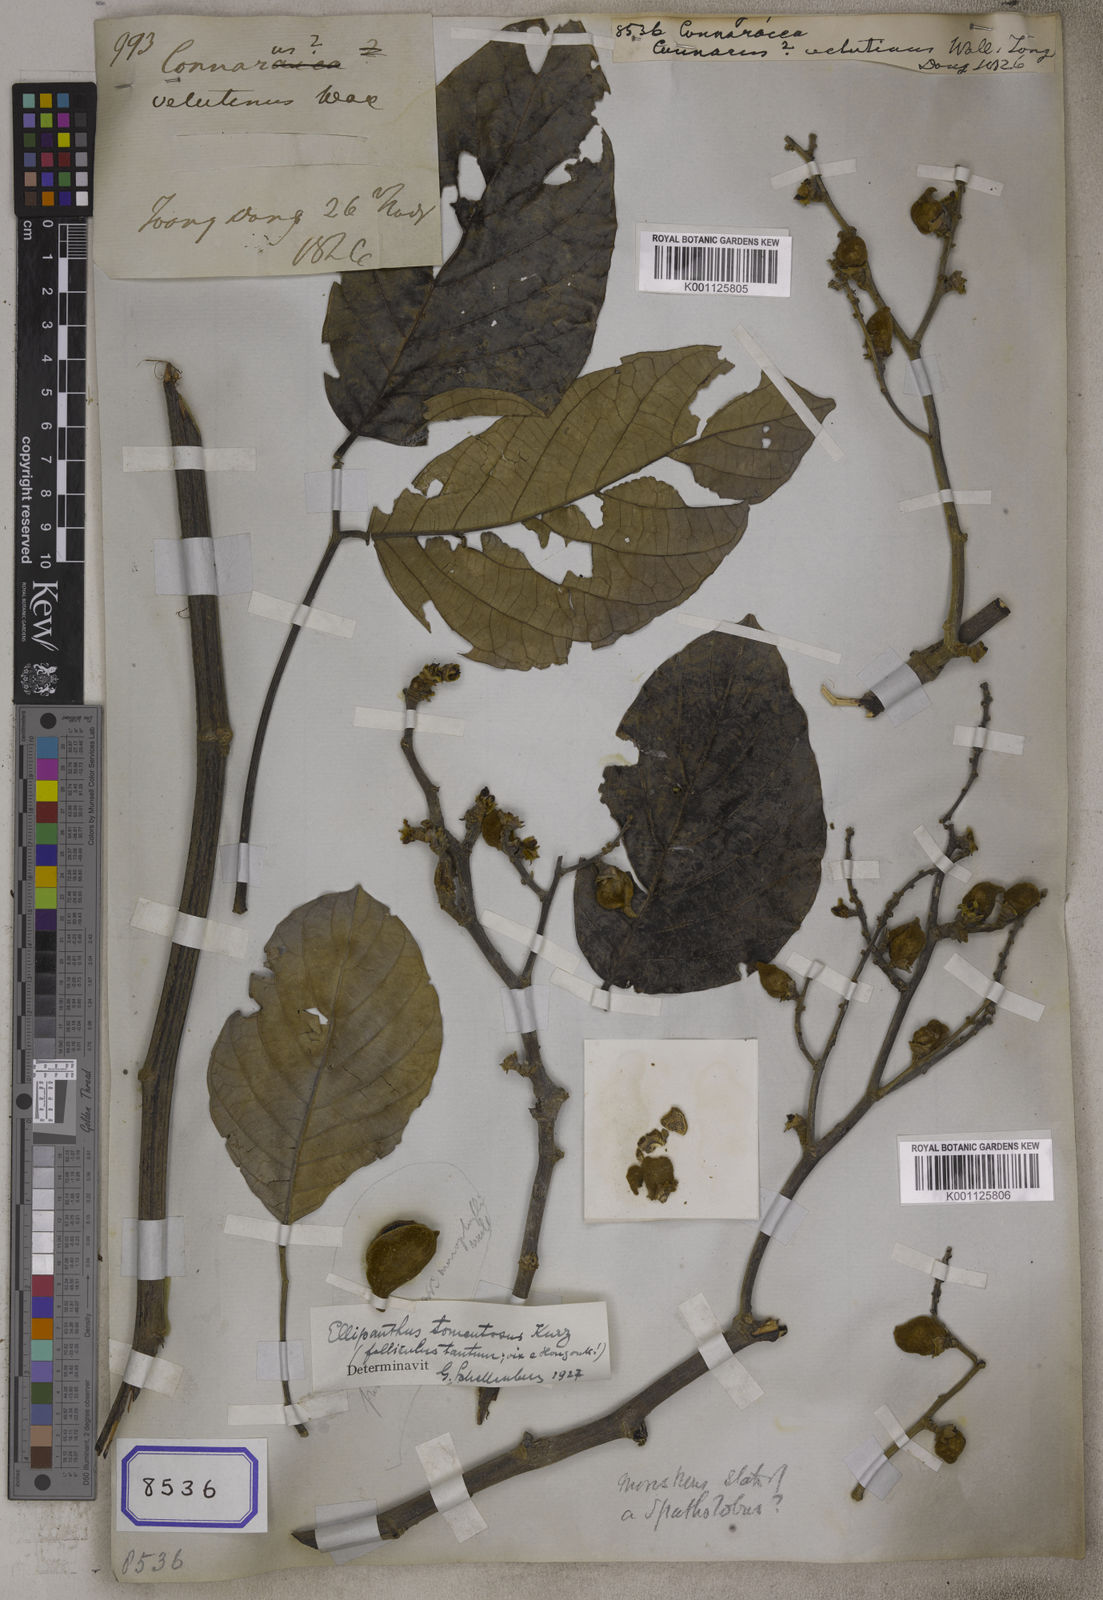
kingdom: Plantae
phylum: Tracheophyta
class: Magnoliopsida
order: Oxalidales
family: Connaraceae
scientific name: Connaraceae
